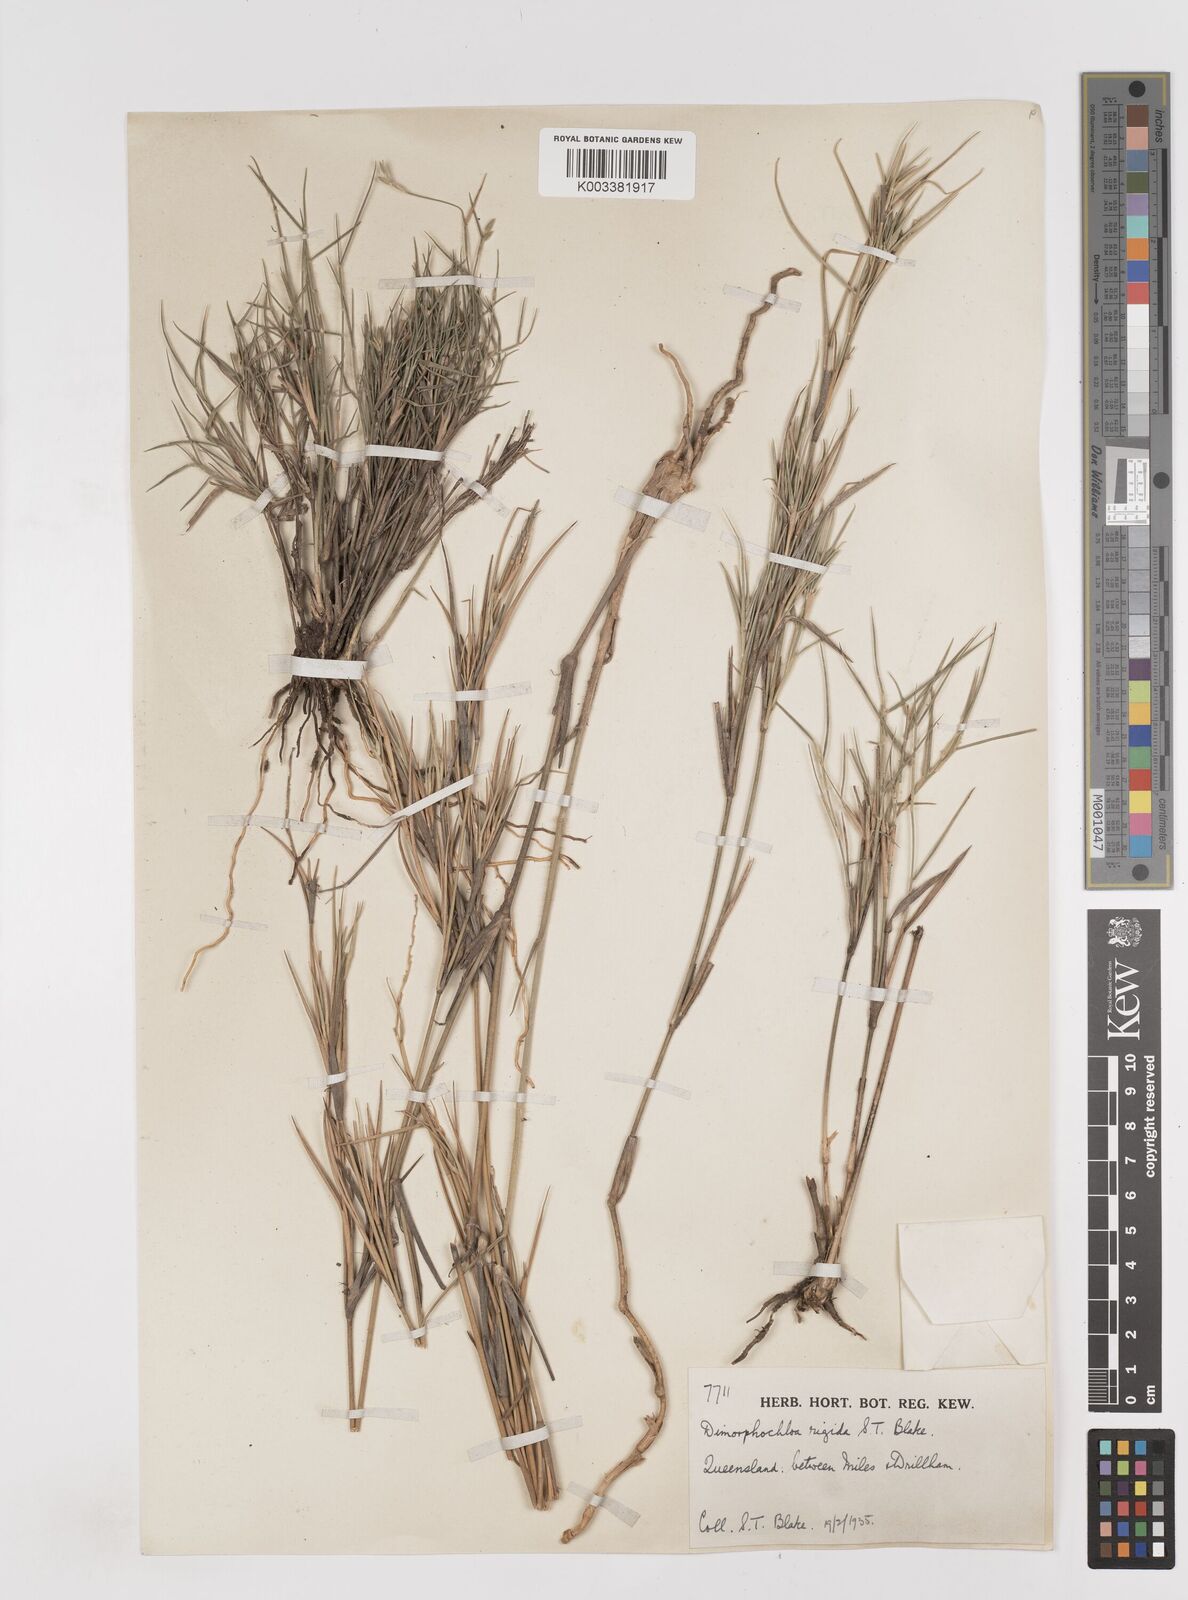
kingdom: Plantae
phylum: Tracheophyta
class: Liliopsida
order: Poales
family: Poaceae
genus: Dimorphochloa
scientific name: Dimorphochloa rigida
